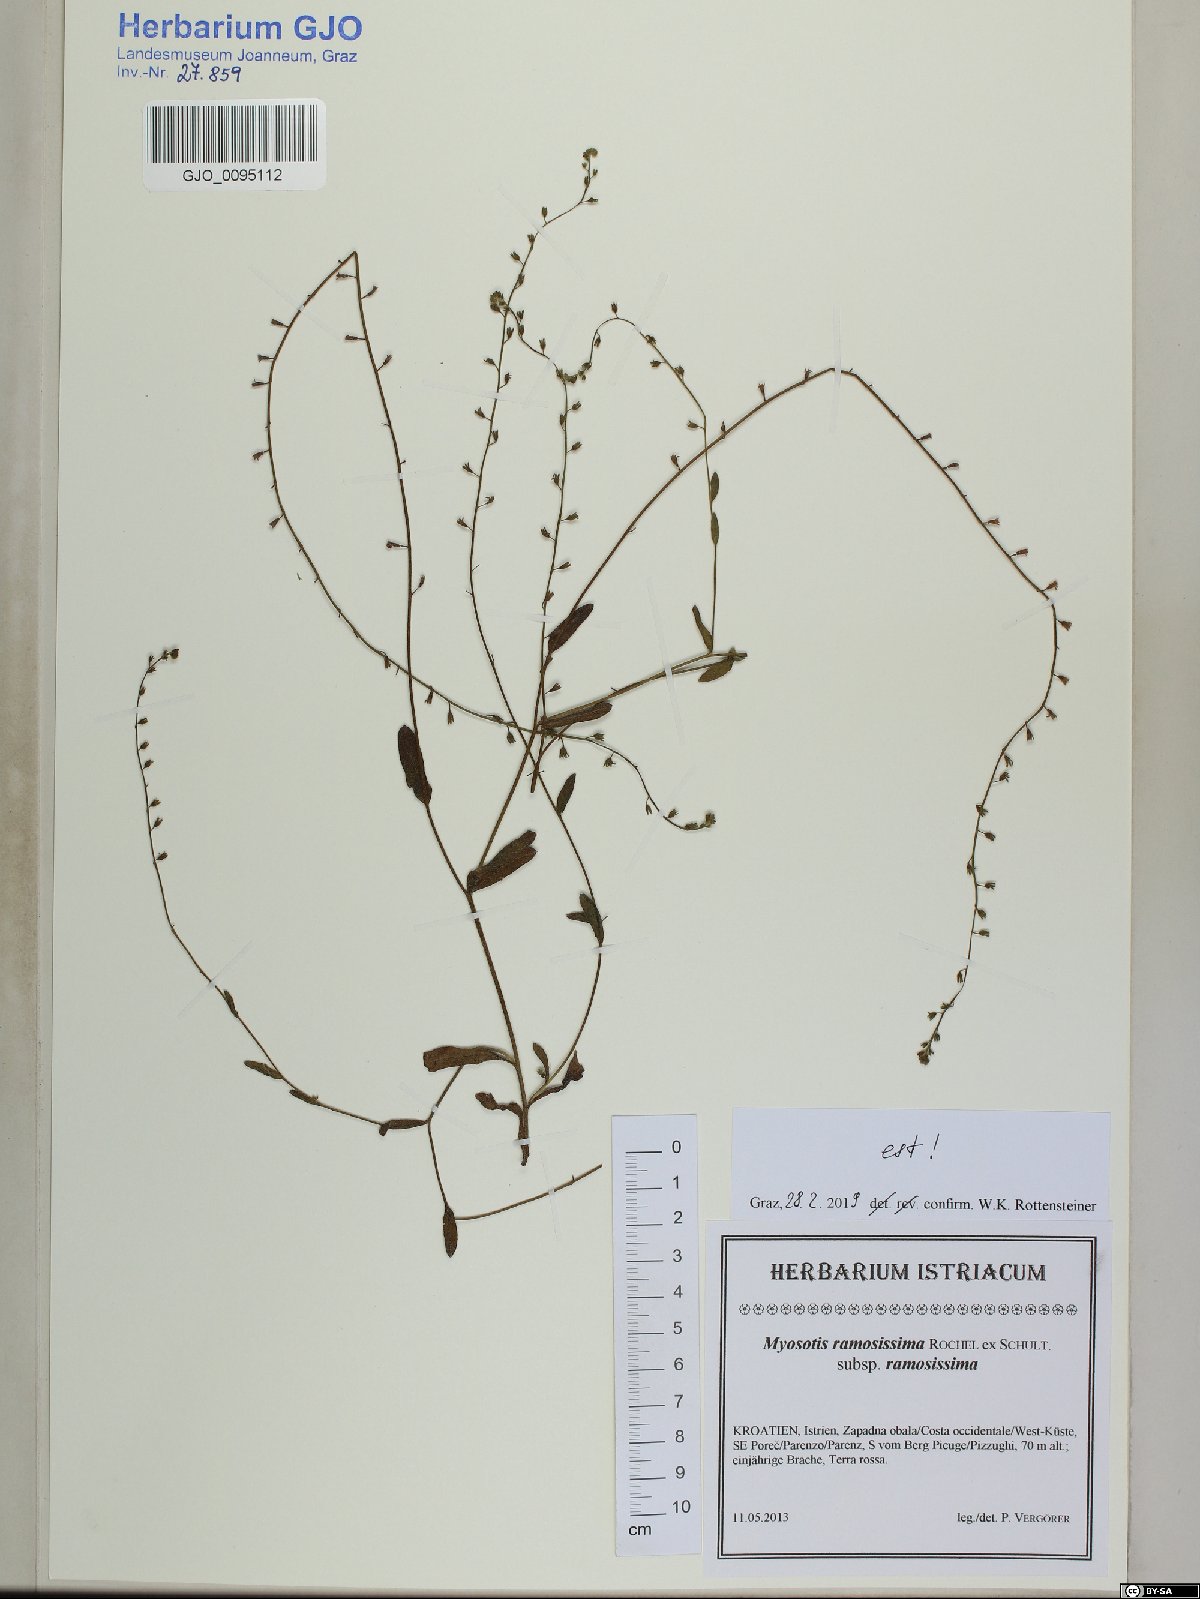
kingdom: Plantae
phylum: Tracheophyta
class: Magnoliopsida
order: Boraginales
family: Boraginaceae
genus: Myosotis
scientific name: Myosotis ramosissima
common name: Early forget-me-not
